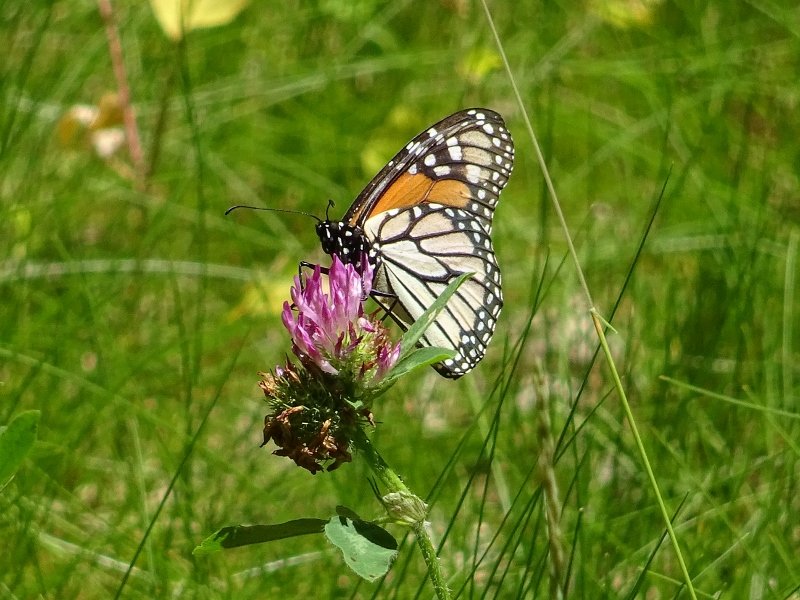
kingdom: Animalia
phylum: Arthropoda
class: Insecta
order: Lepidoptera
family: Nymphalidae
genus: Danaus
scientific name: Danaus plexippus
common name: Monarch
